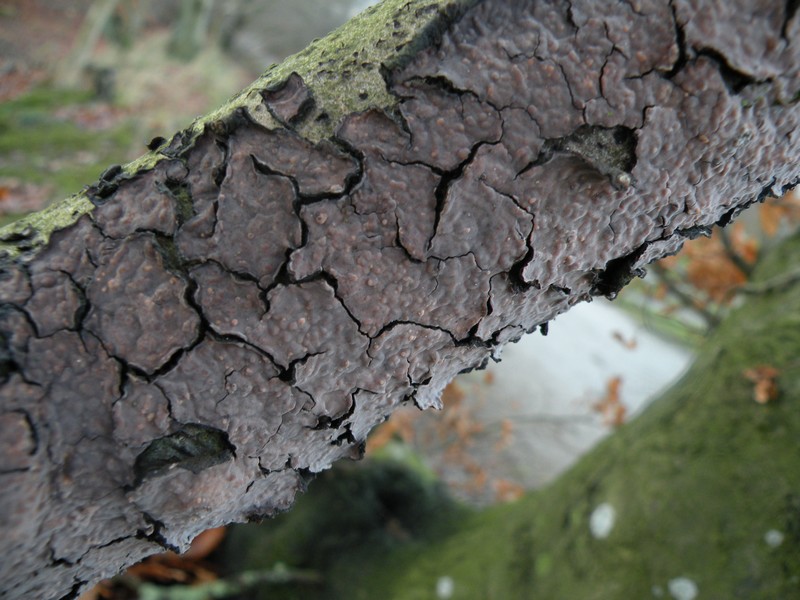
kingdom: Fungi
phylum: Basidiomycota
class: Agaricomycetes
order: Russulales
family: Peniophoraceae
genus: Peniophora
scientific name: Peniophora quercina
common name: ege-voksskind
